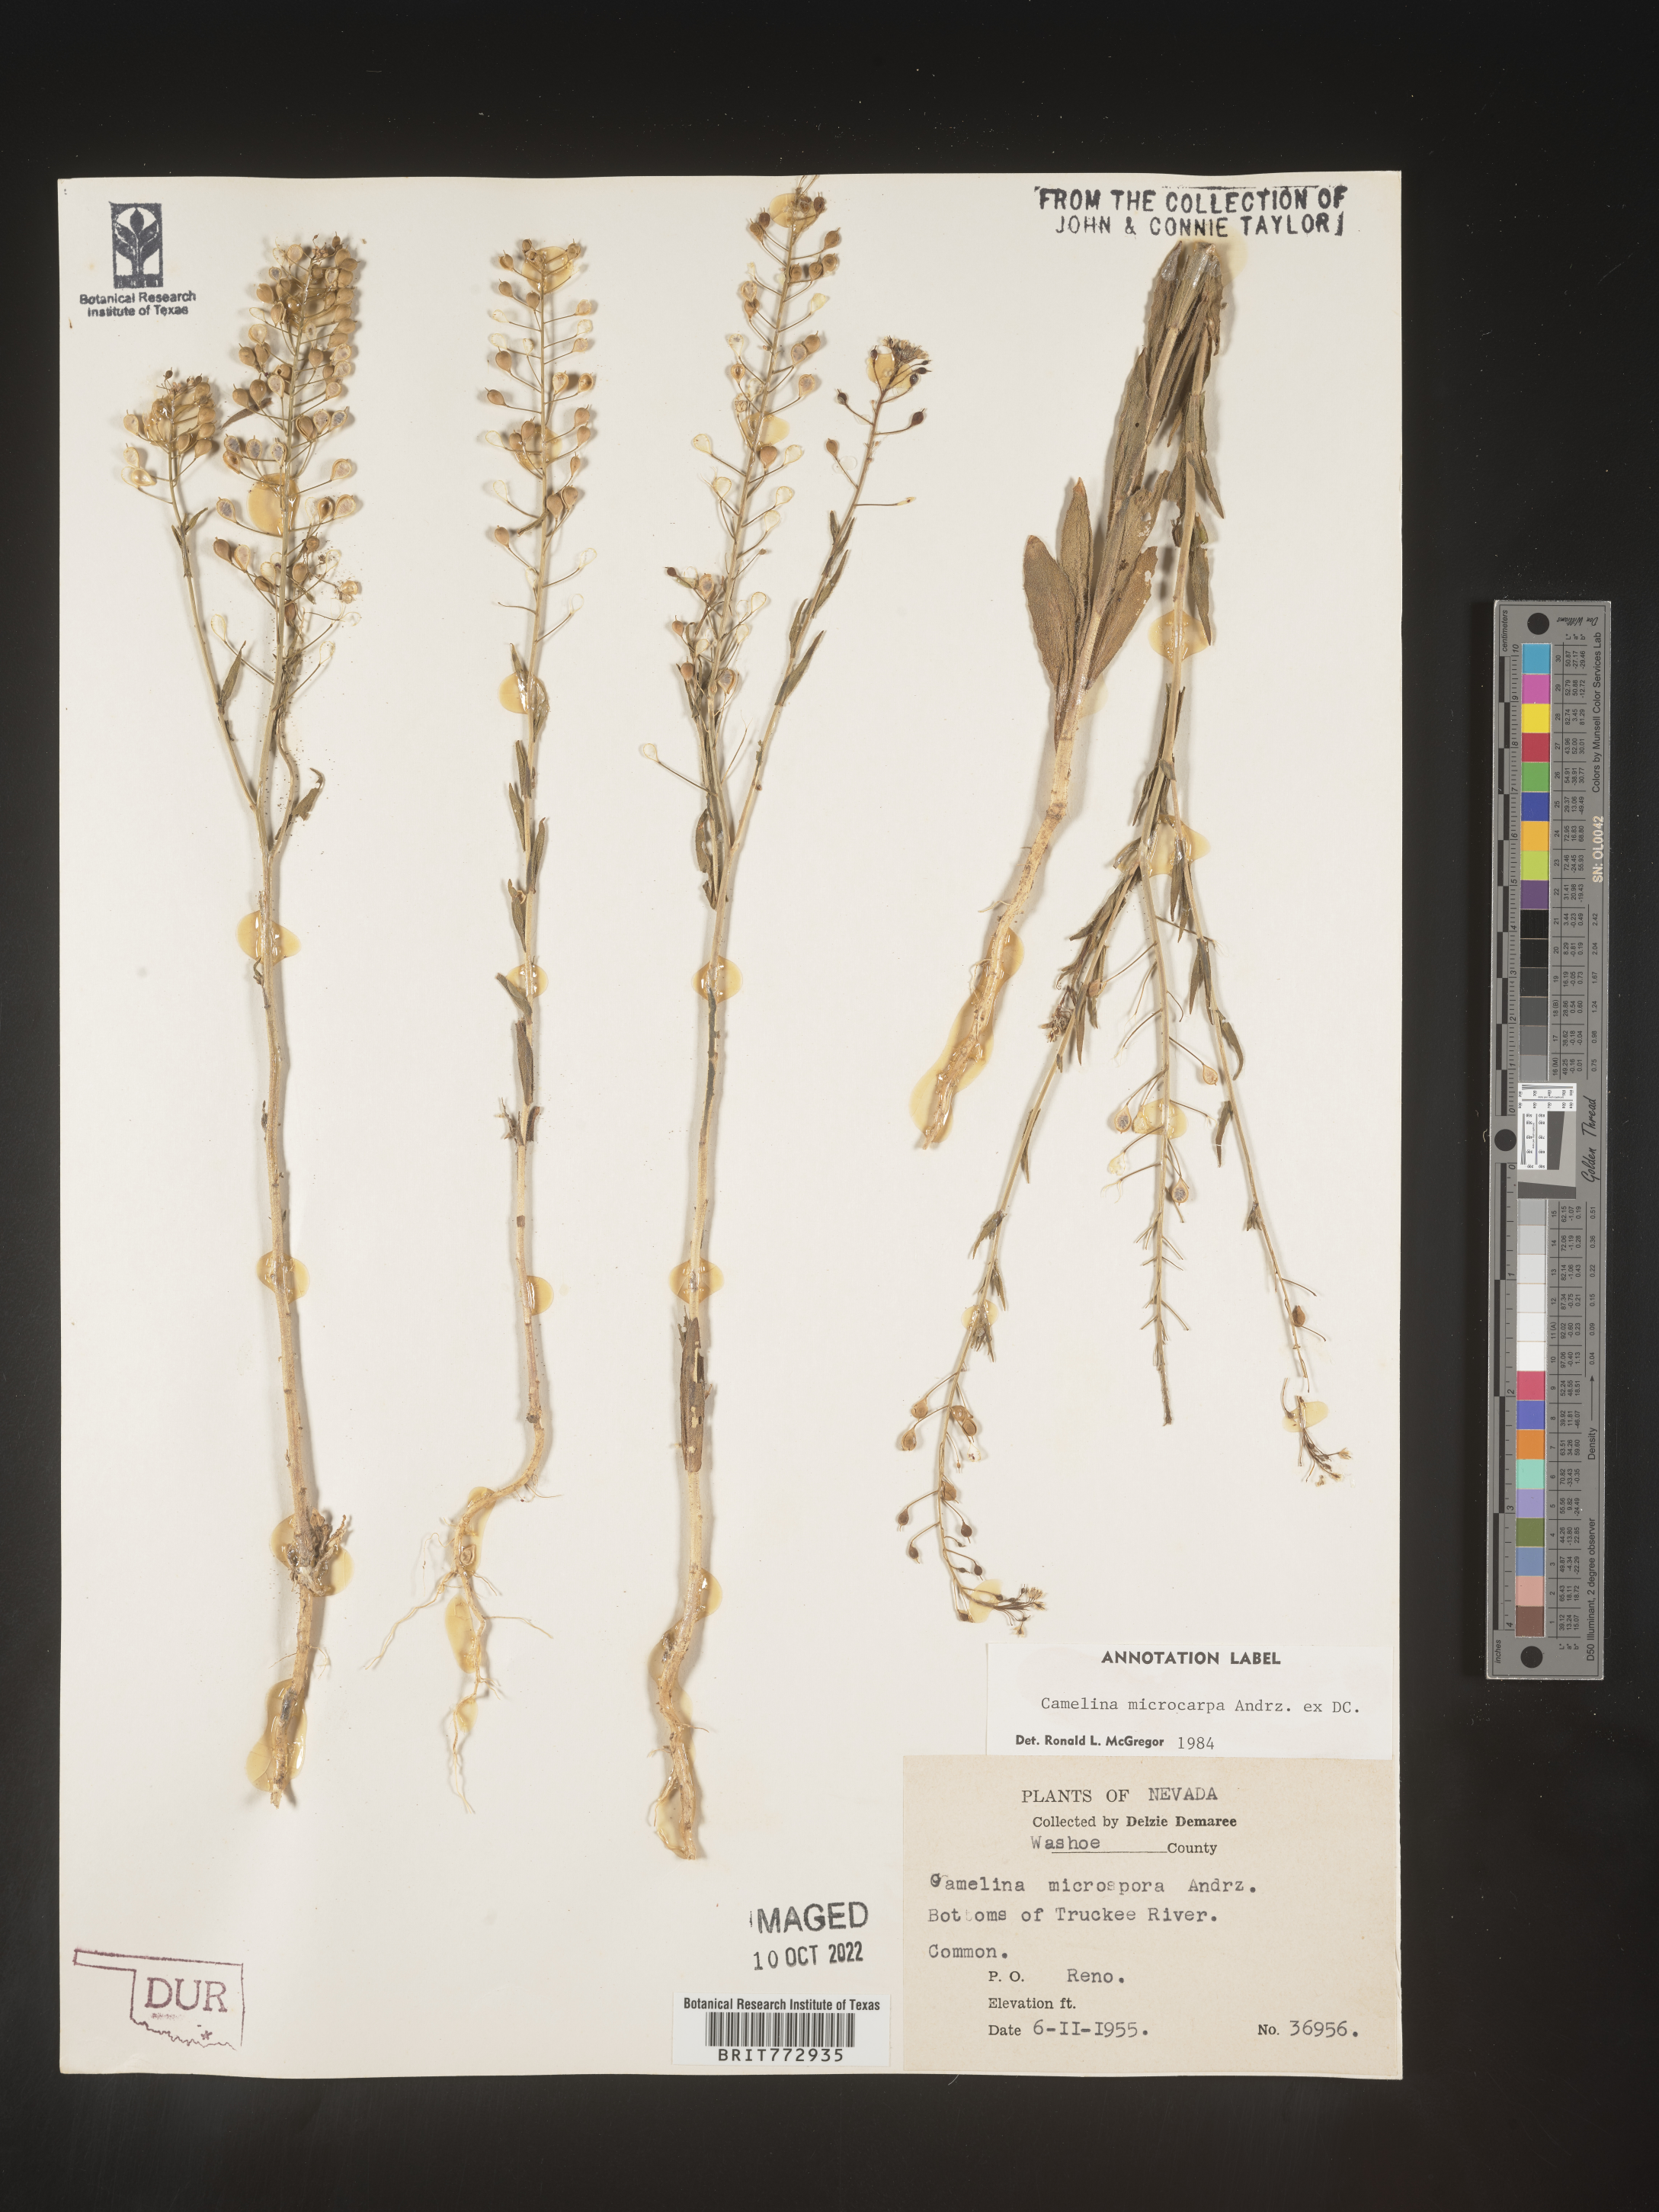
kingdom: Plantae
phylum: Tracheophyta
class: Magnoliopsida
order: Brassicales
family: Brassicaceae
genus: Camelina
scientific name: Camelina microcarpa
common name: Lesser gold-of-pleasure
